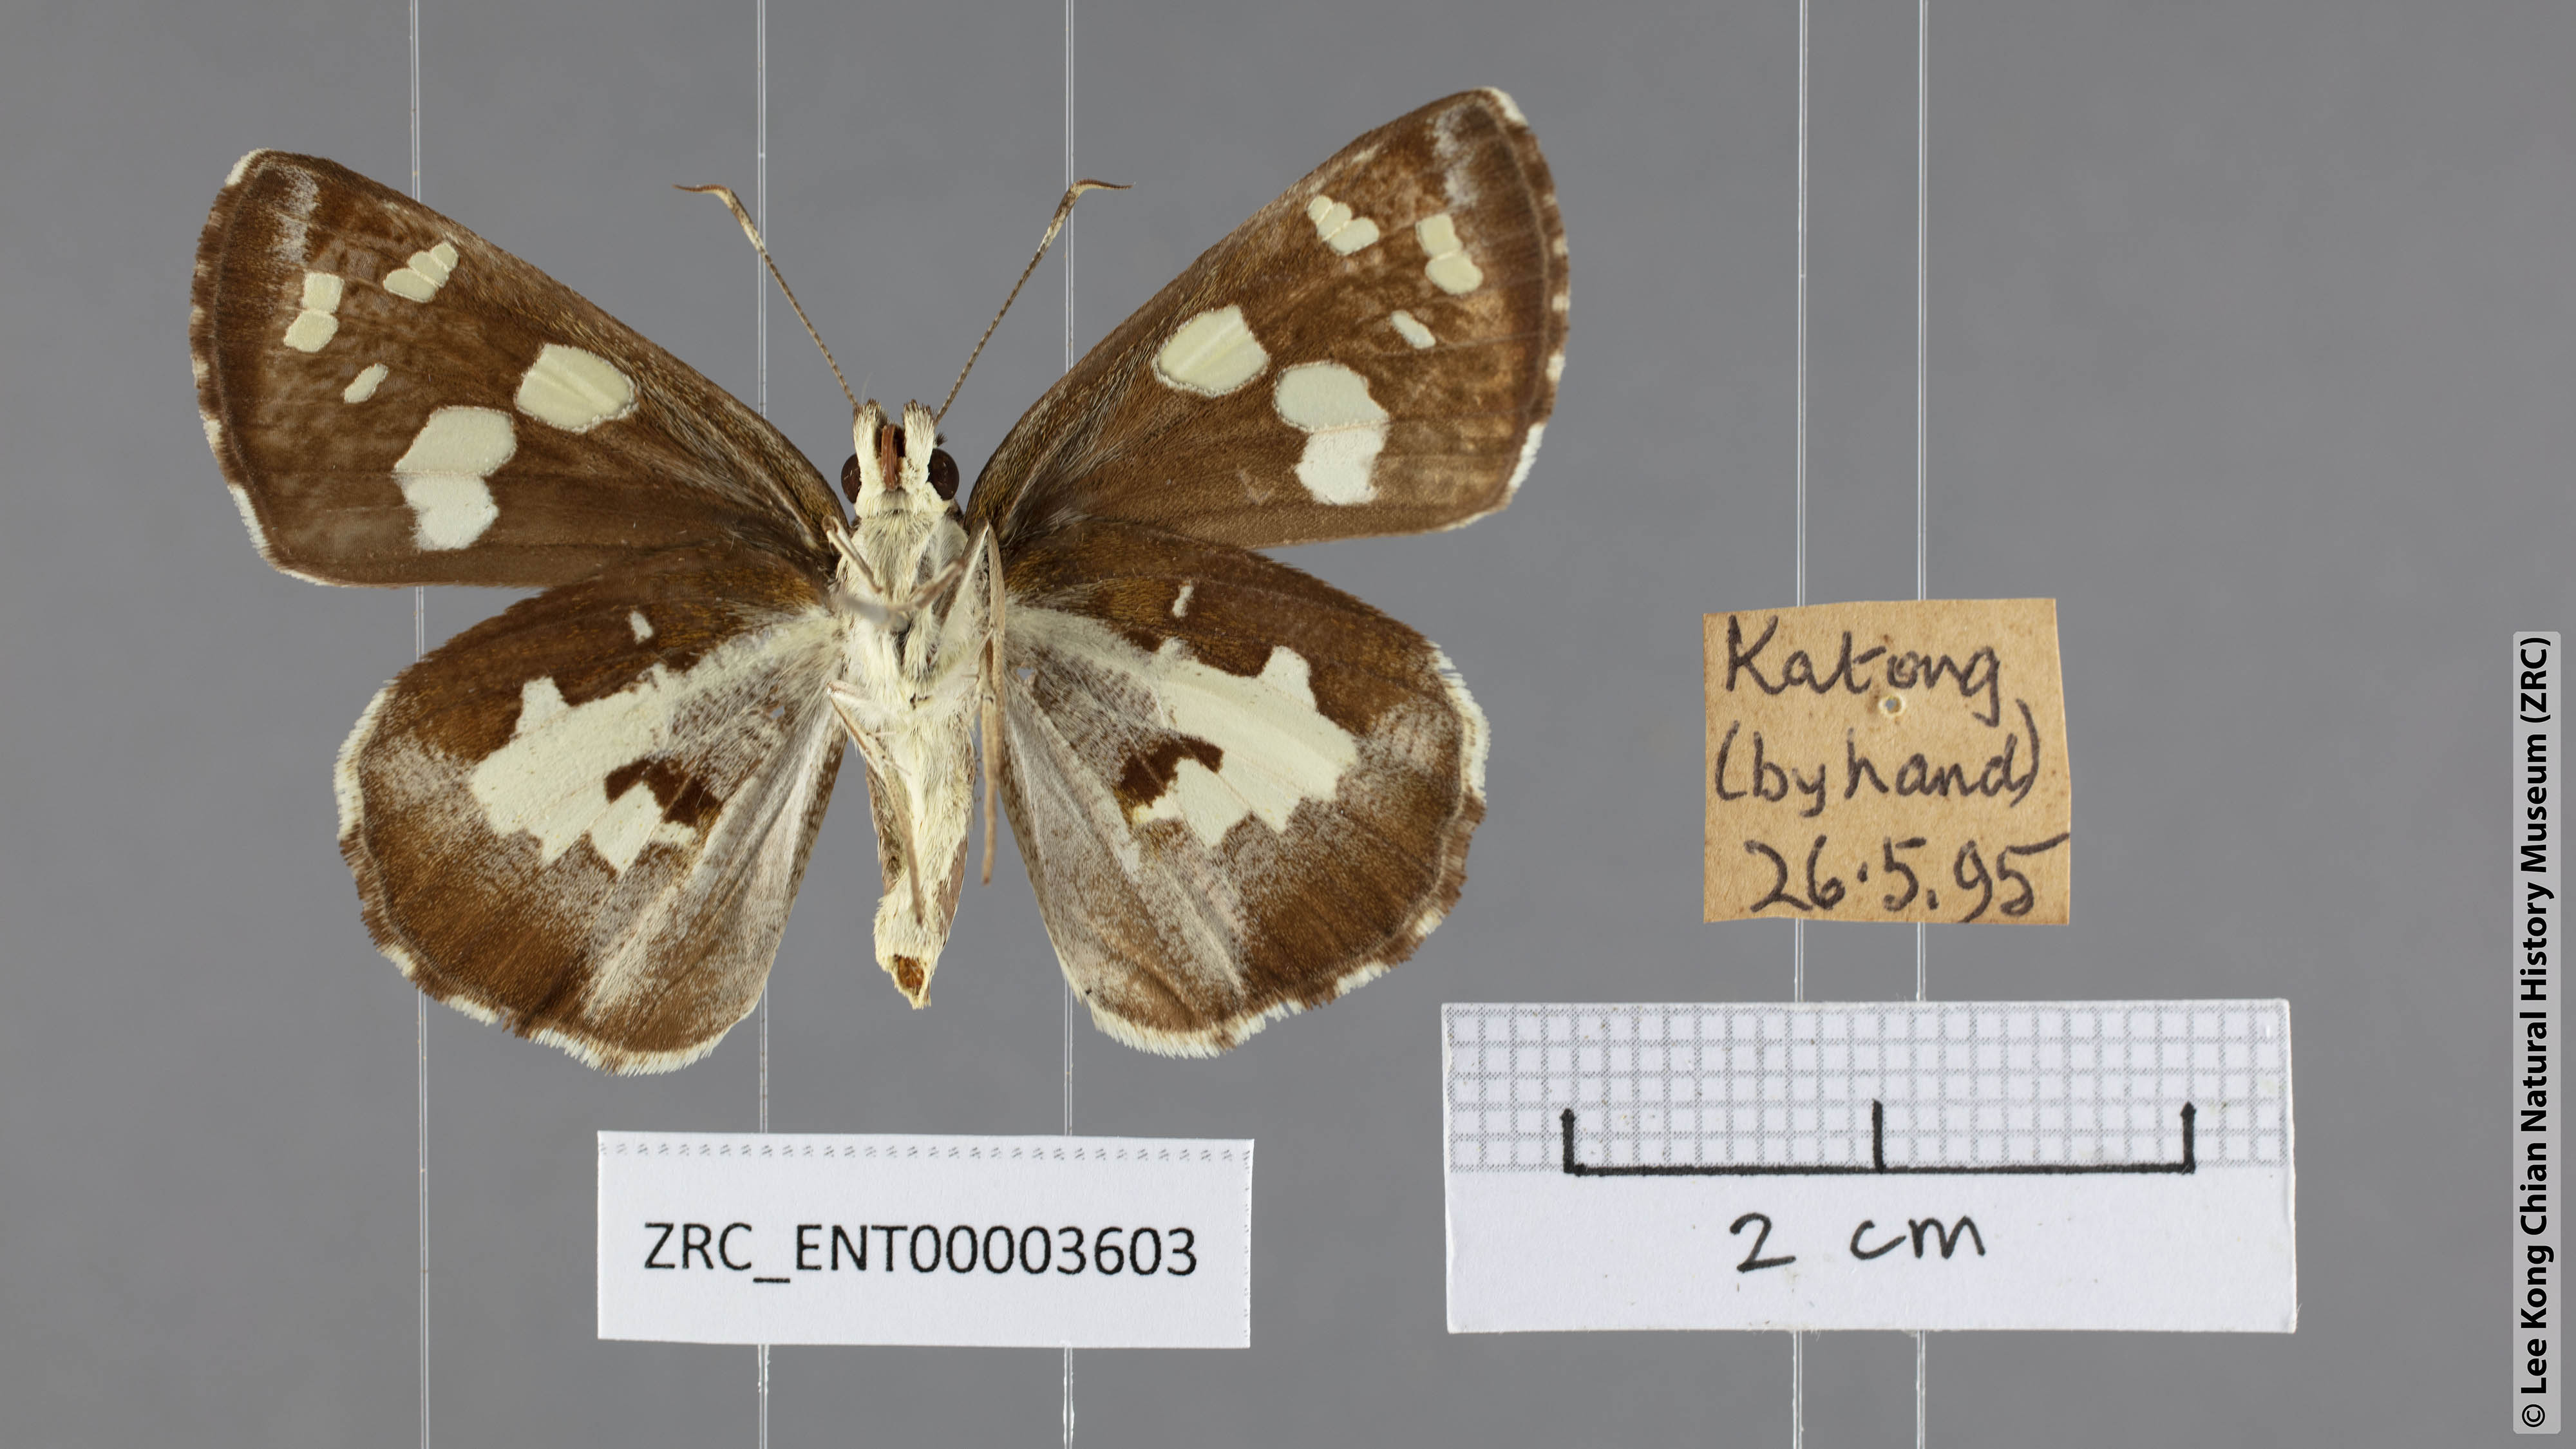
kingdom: Animalia
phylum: Arthropoda
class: Insecta
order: Lepidoptera
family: Hesperiidae
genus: Udaspes
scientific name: Udaspes folus
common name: Grass demon
